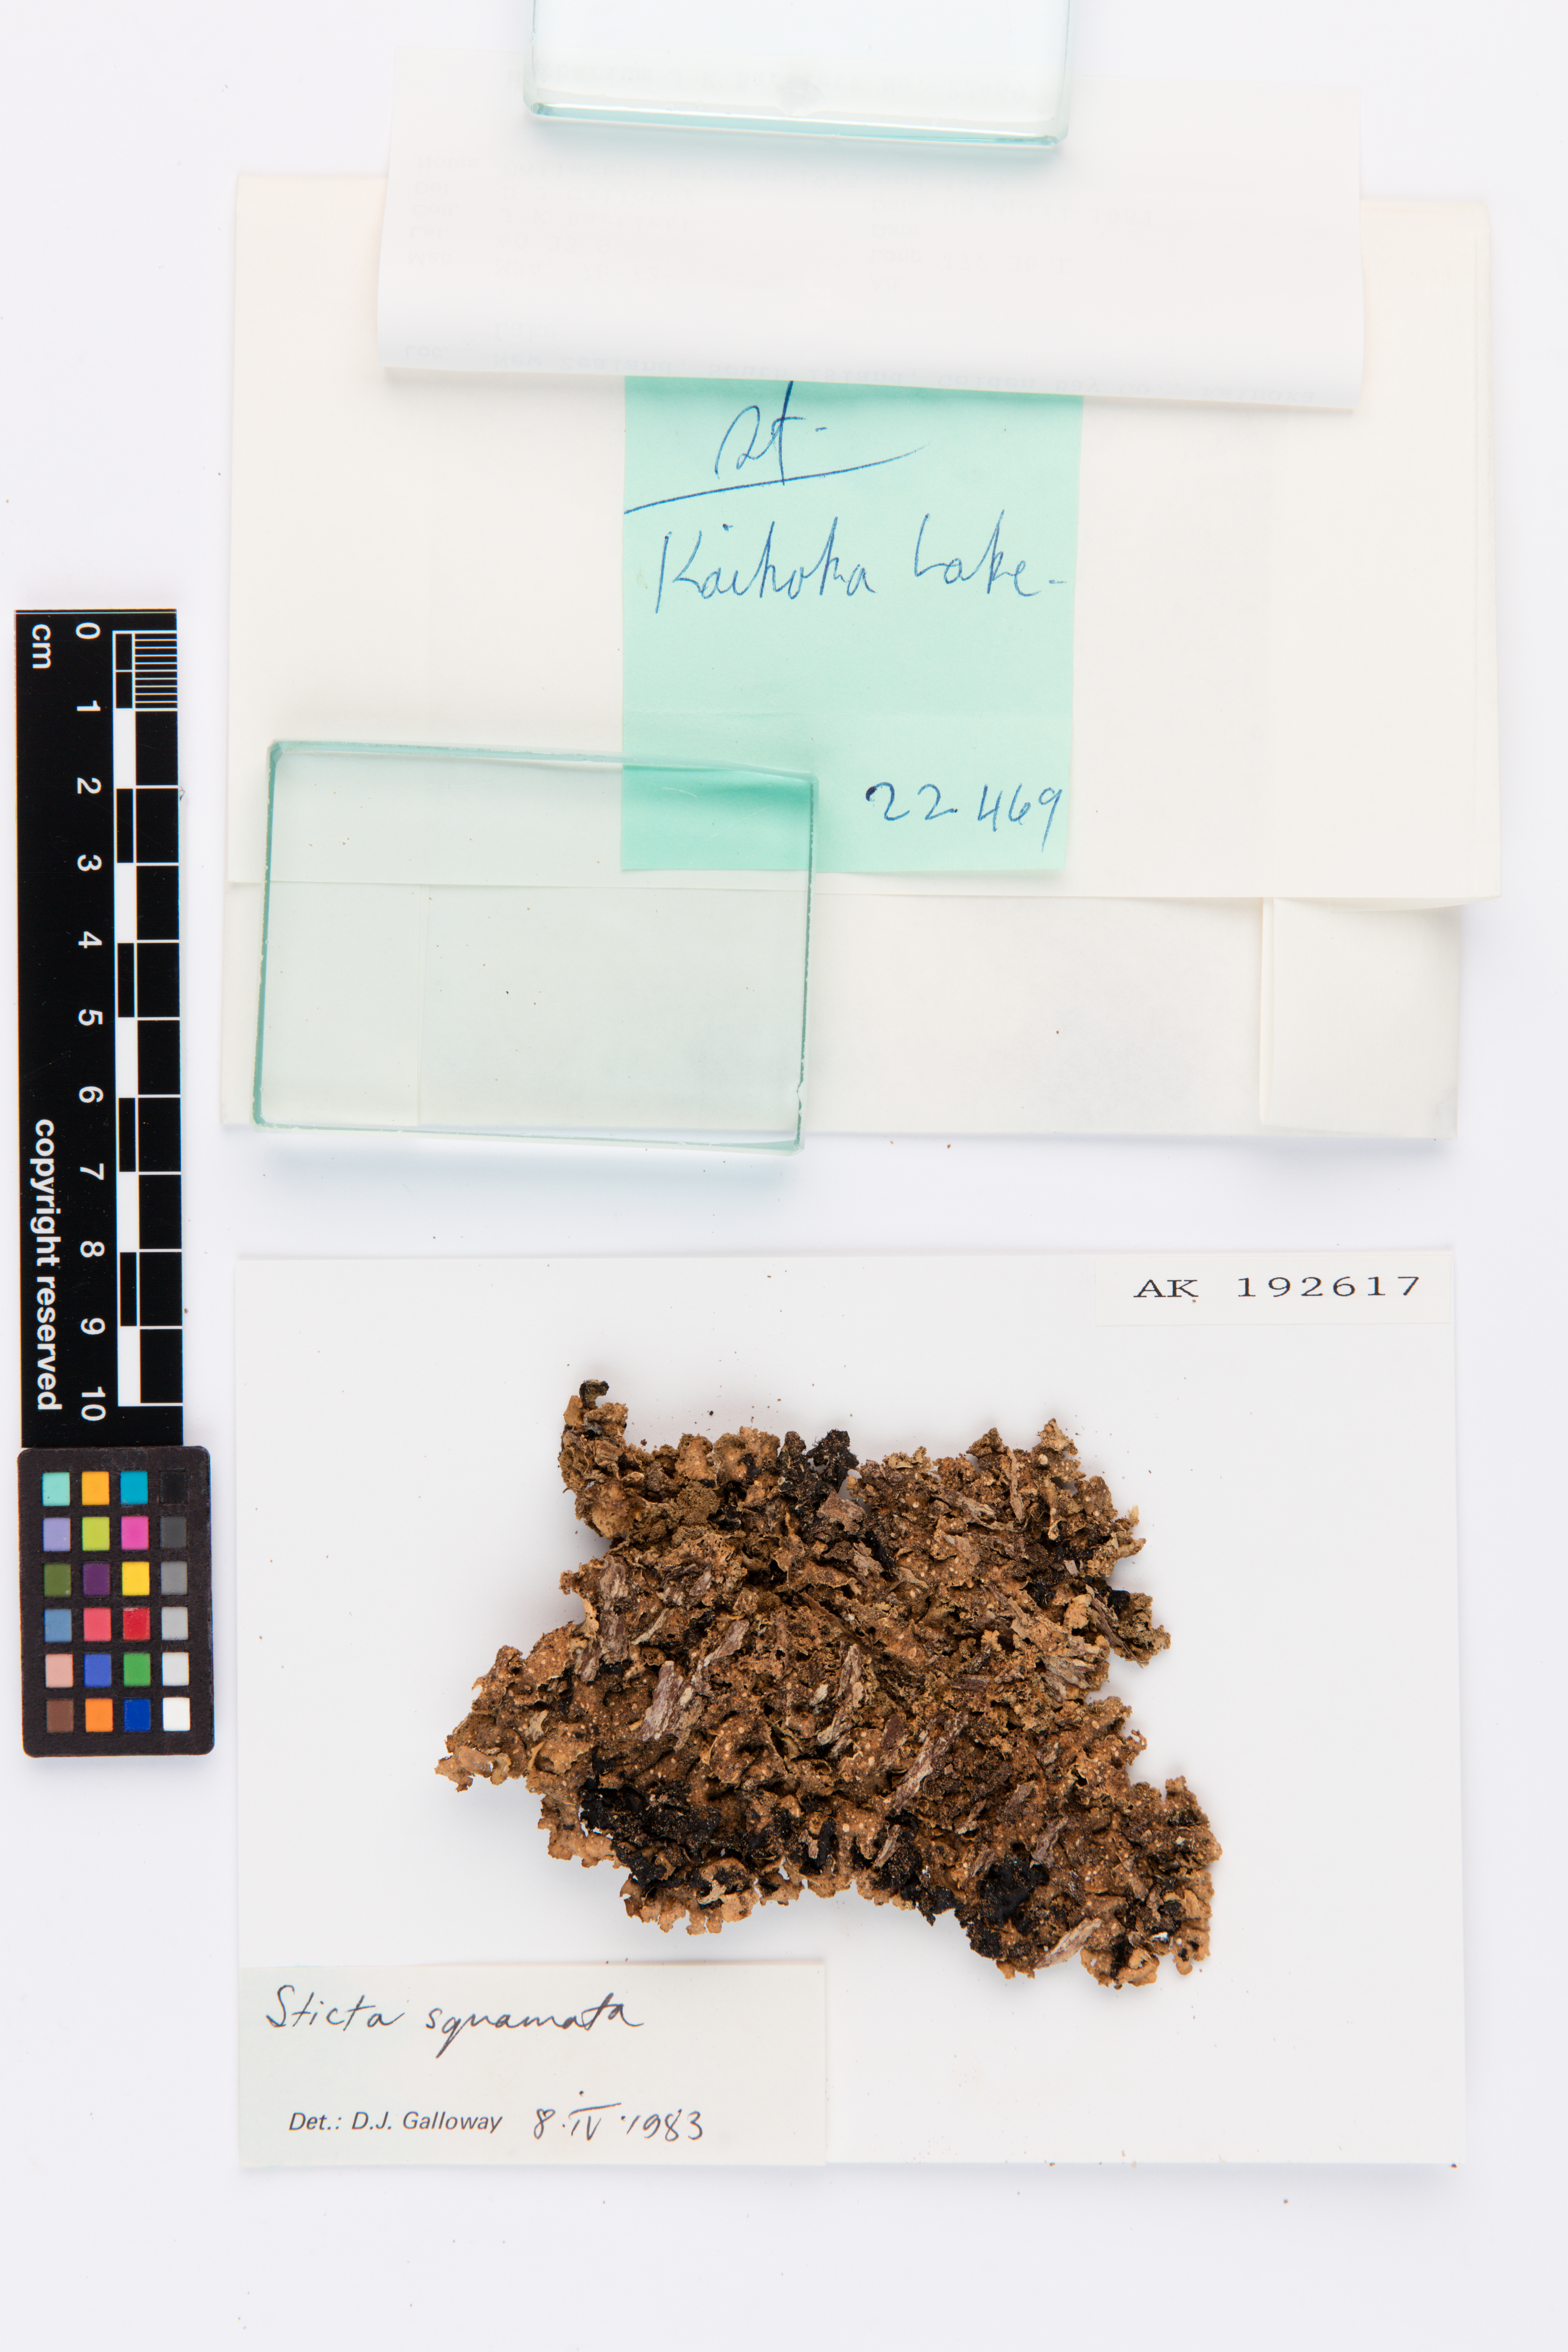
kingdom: Fungi
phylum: Ascomycota
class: Lecanoromycetes
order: Peltigerales
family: Lobariaceae
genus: Sticta
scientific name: Sticta squamata
